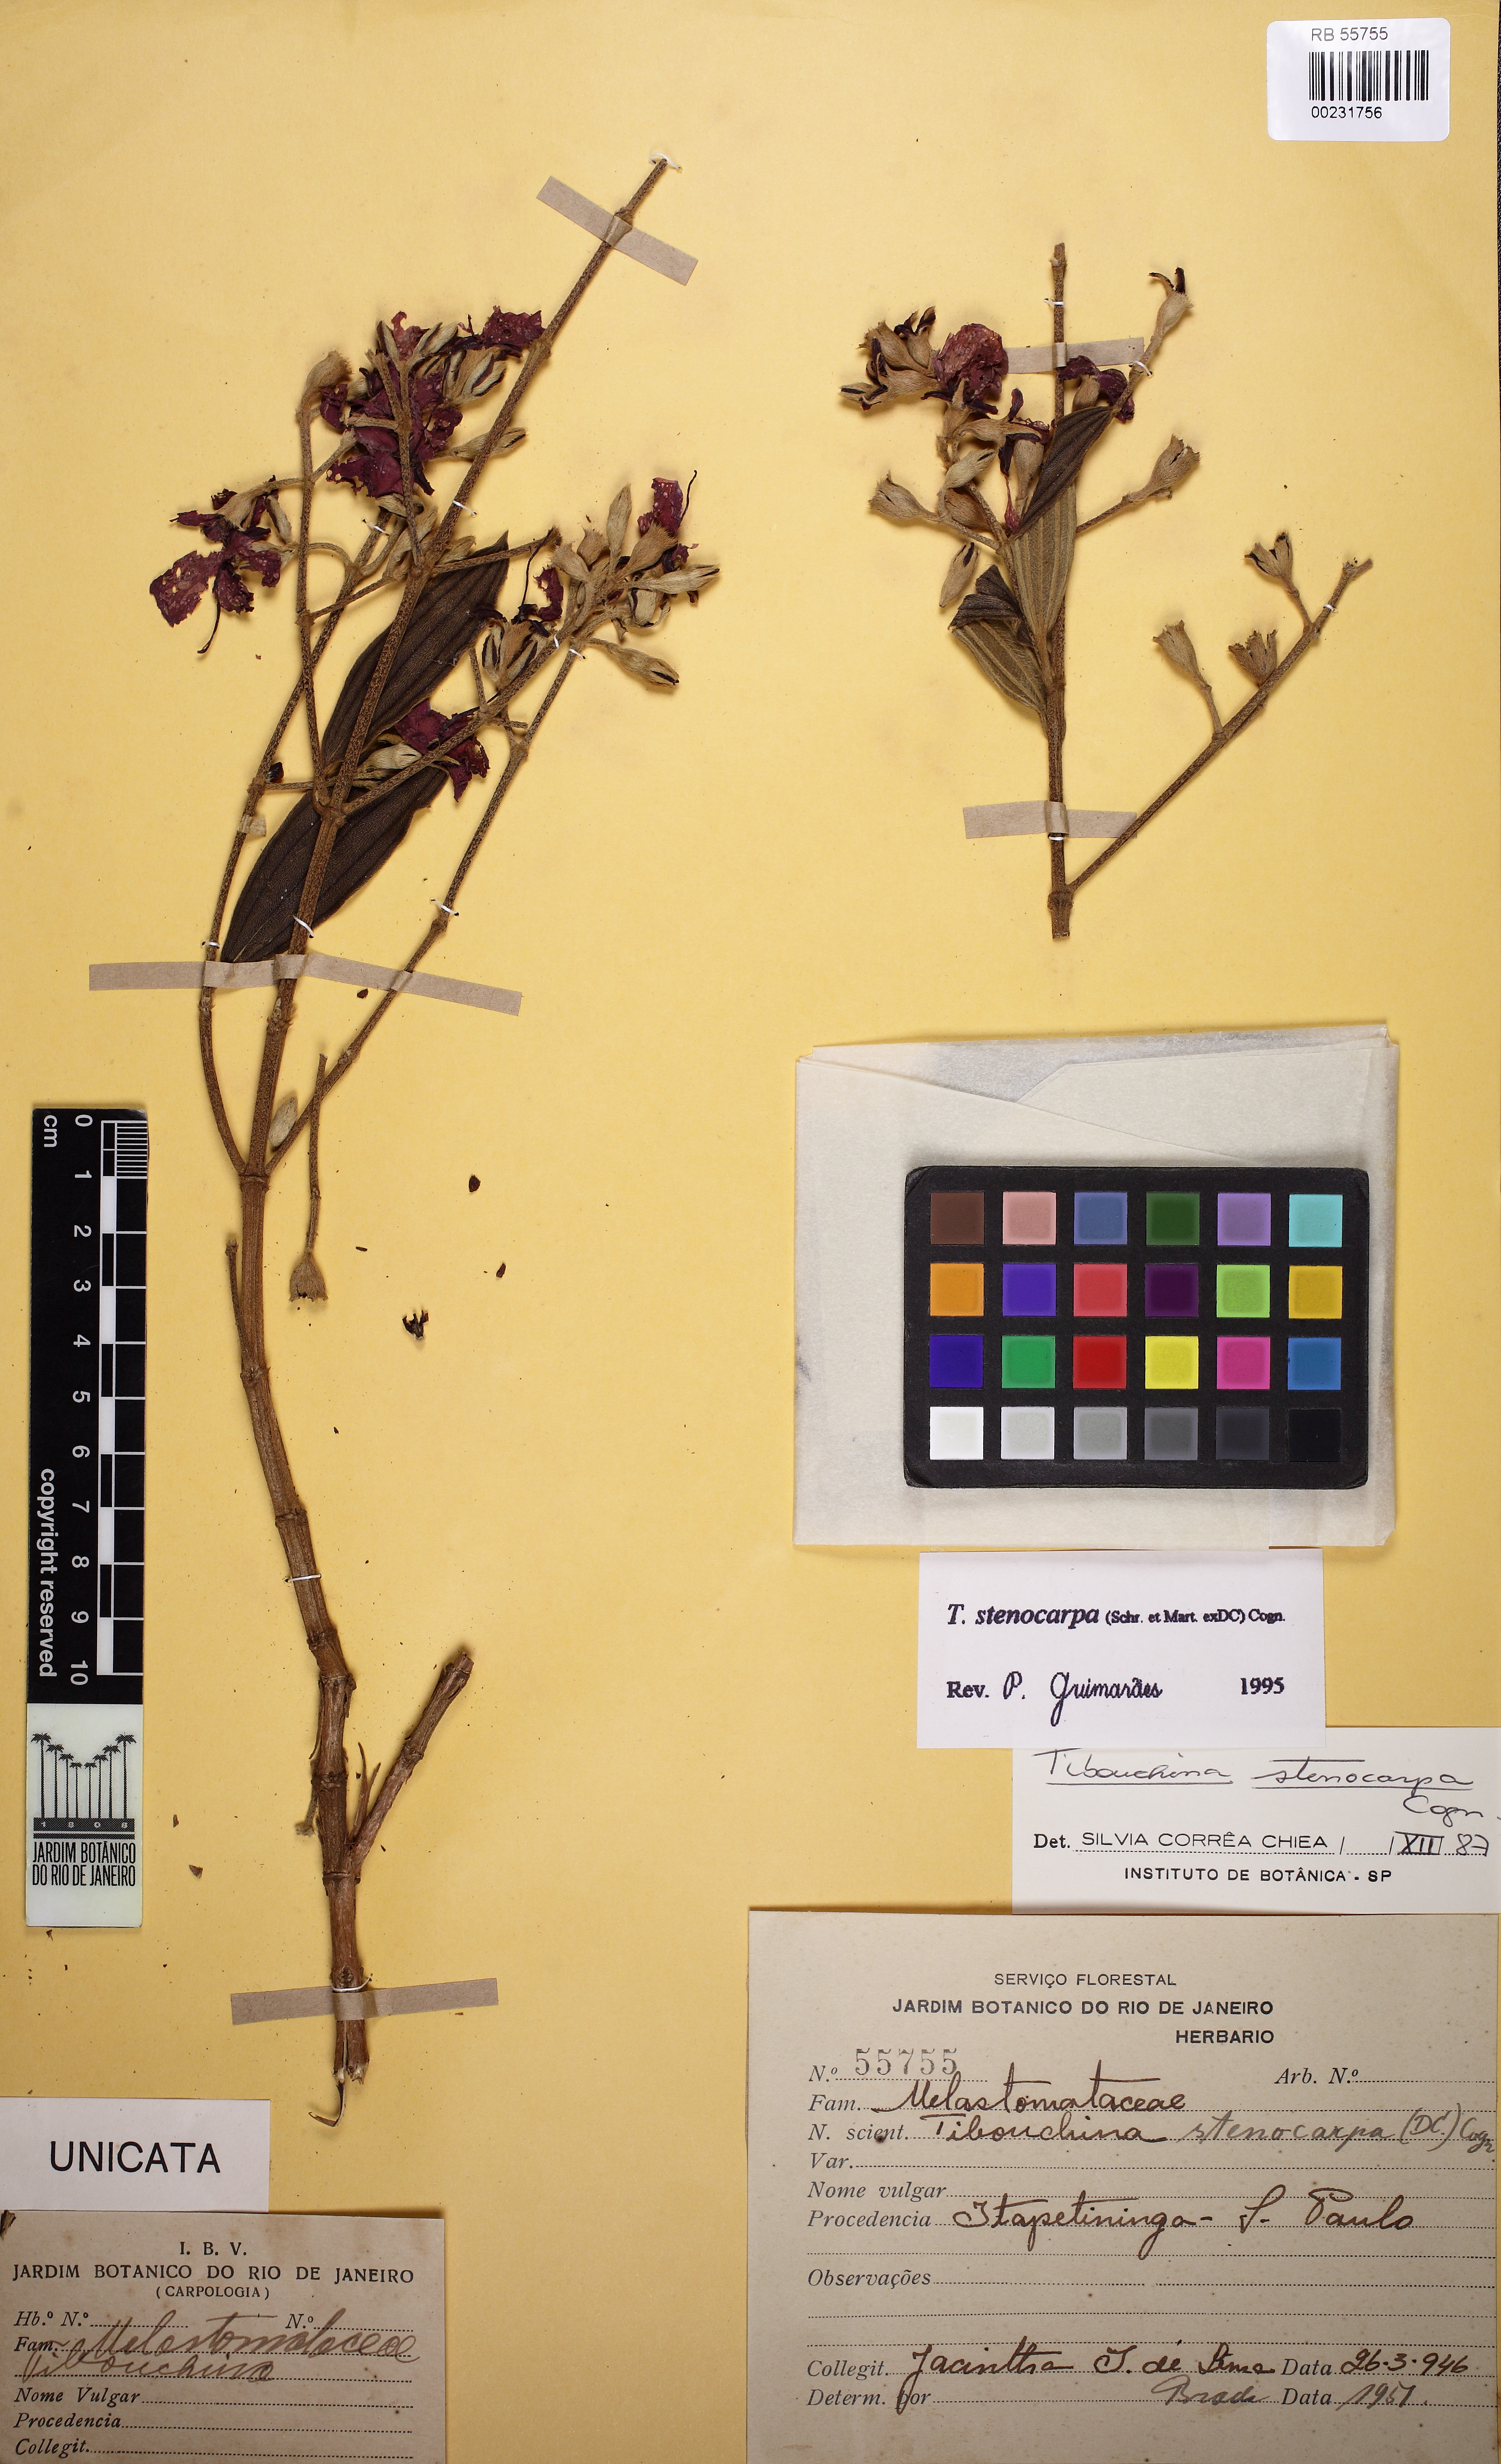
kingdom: Plantae
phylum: Tracheophyta
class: Magnoliopsida
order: Myrtales
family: Melastomataceae
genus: Chaetogastra
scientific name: Chaetogastra simplicicaulis
